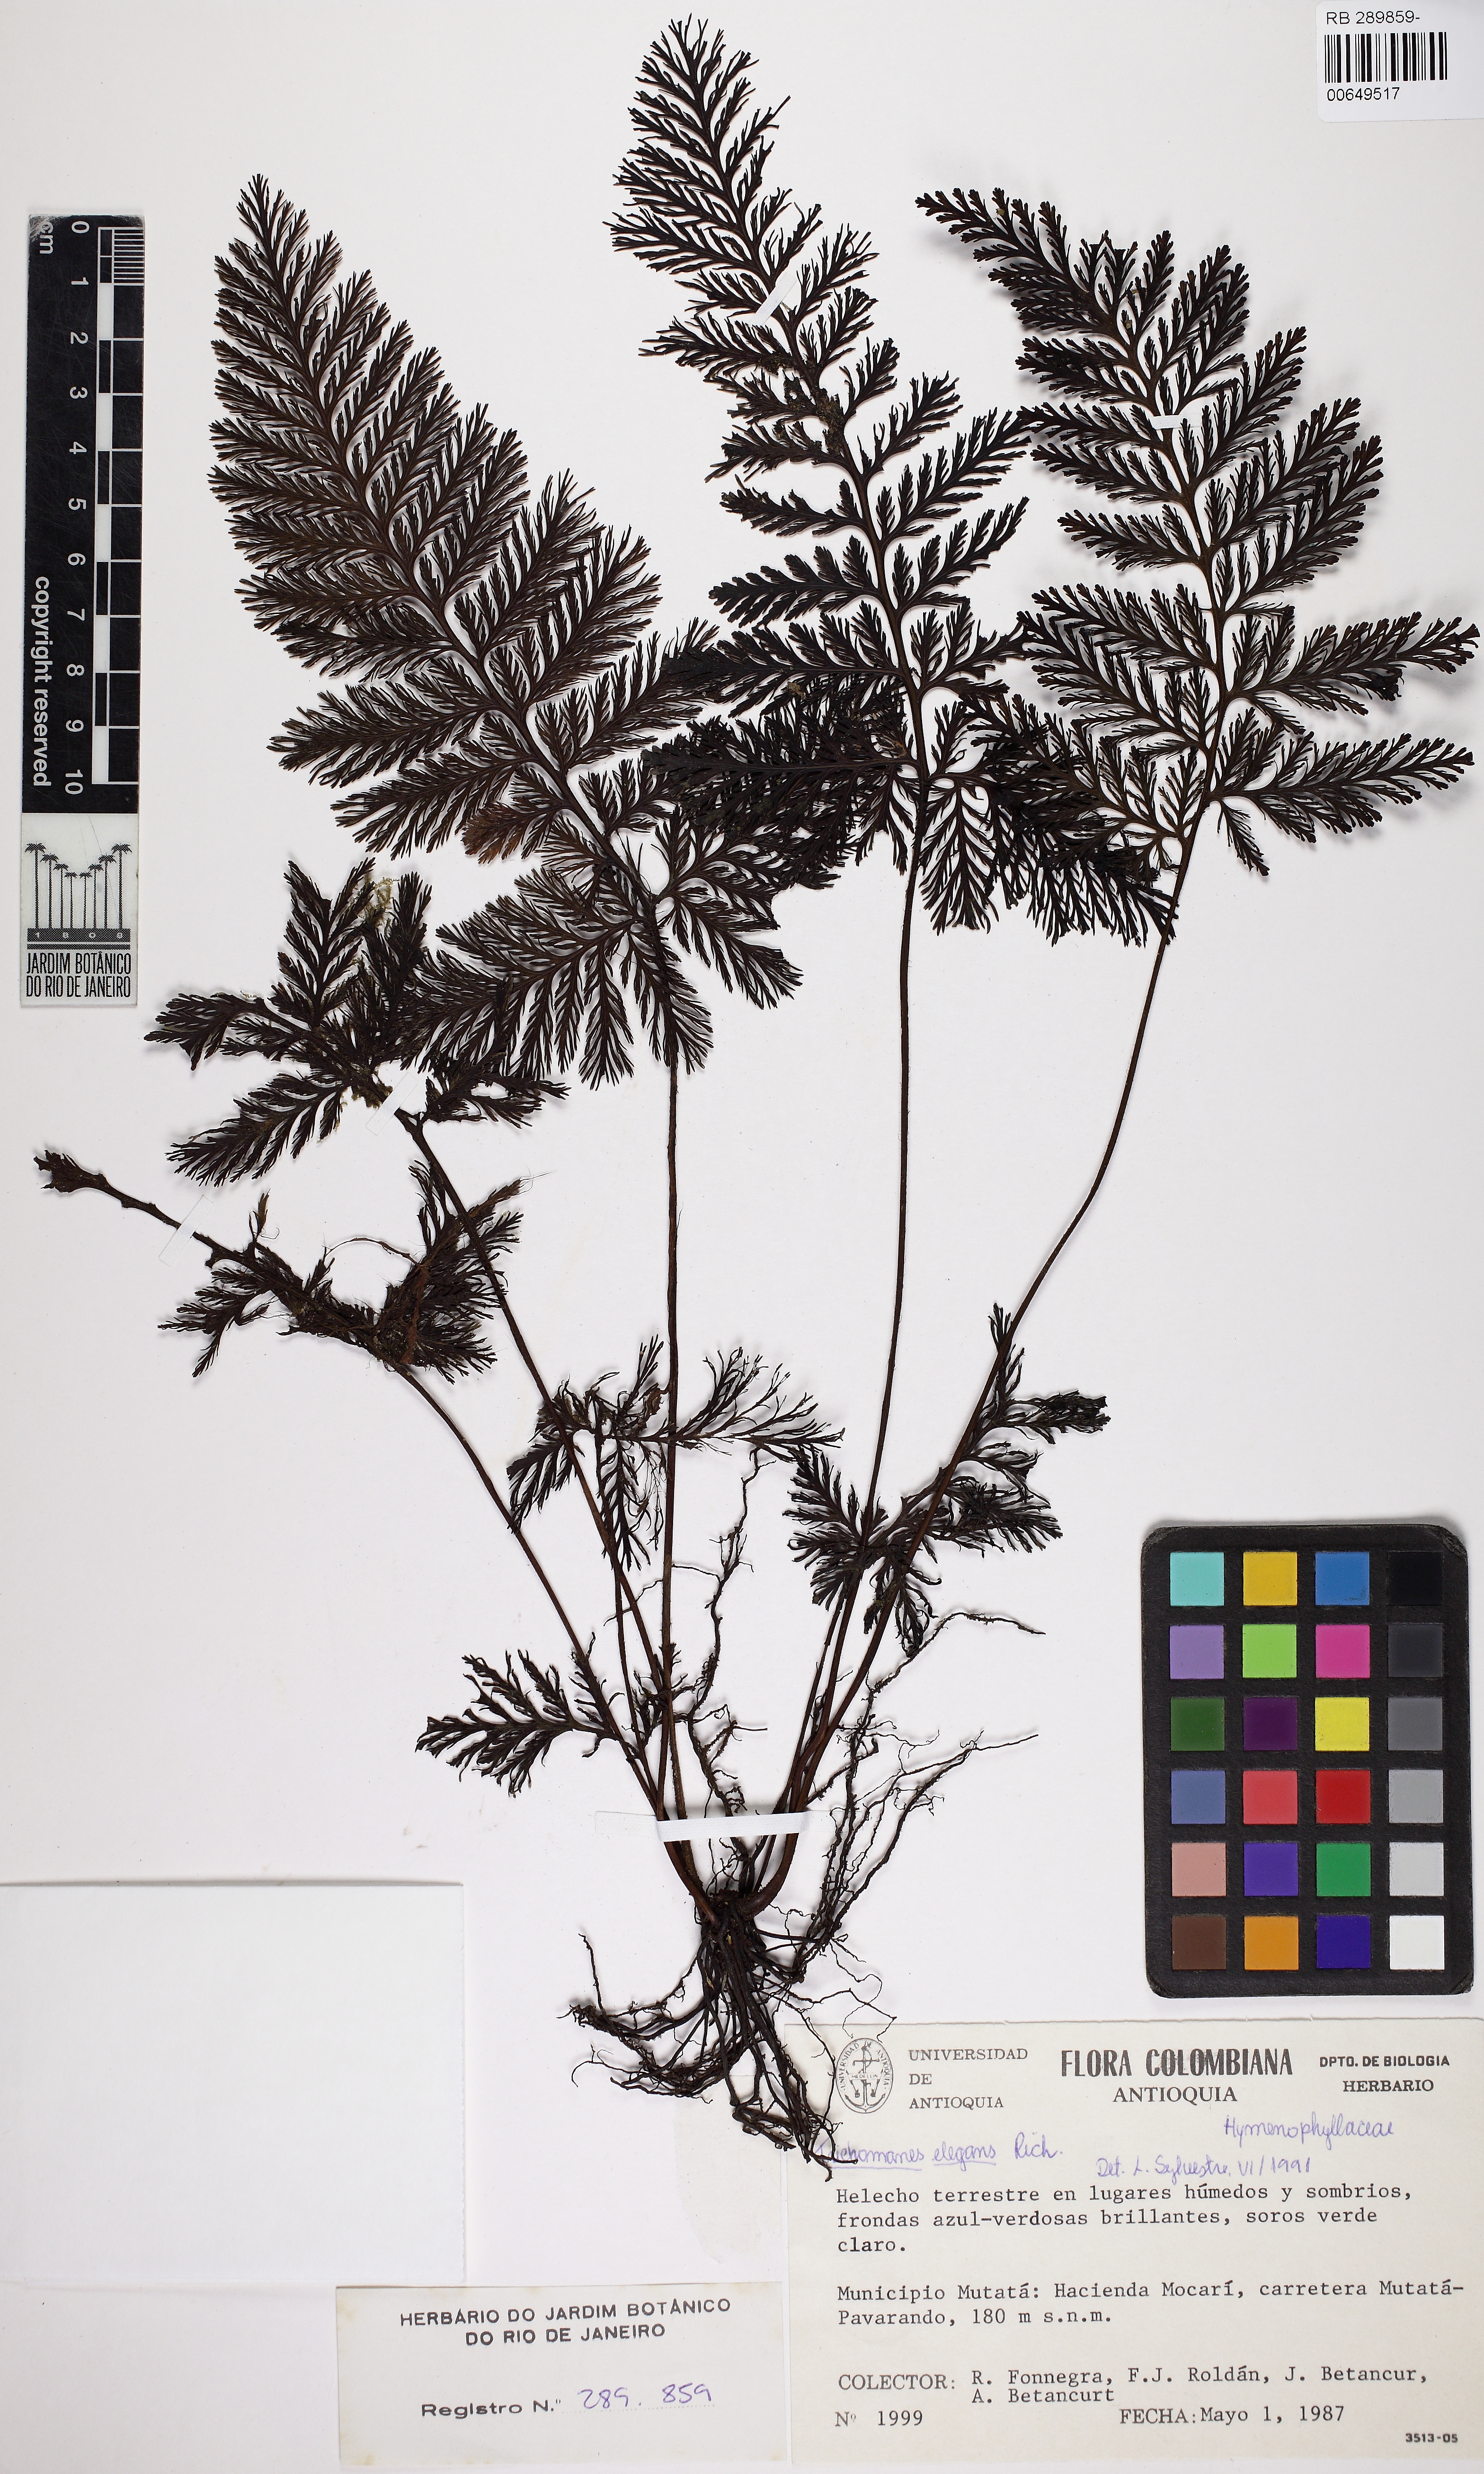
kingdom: Plantae
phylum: Tracheophyta
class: Polypodiopsida
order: Hymenophyllales
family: Hymenophyllaceae
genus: Trichomanes
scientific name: Trichomanes elegans
